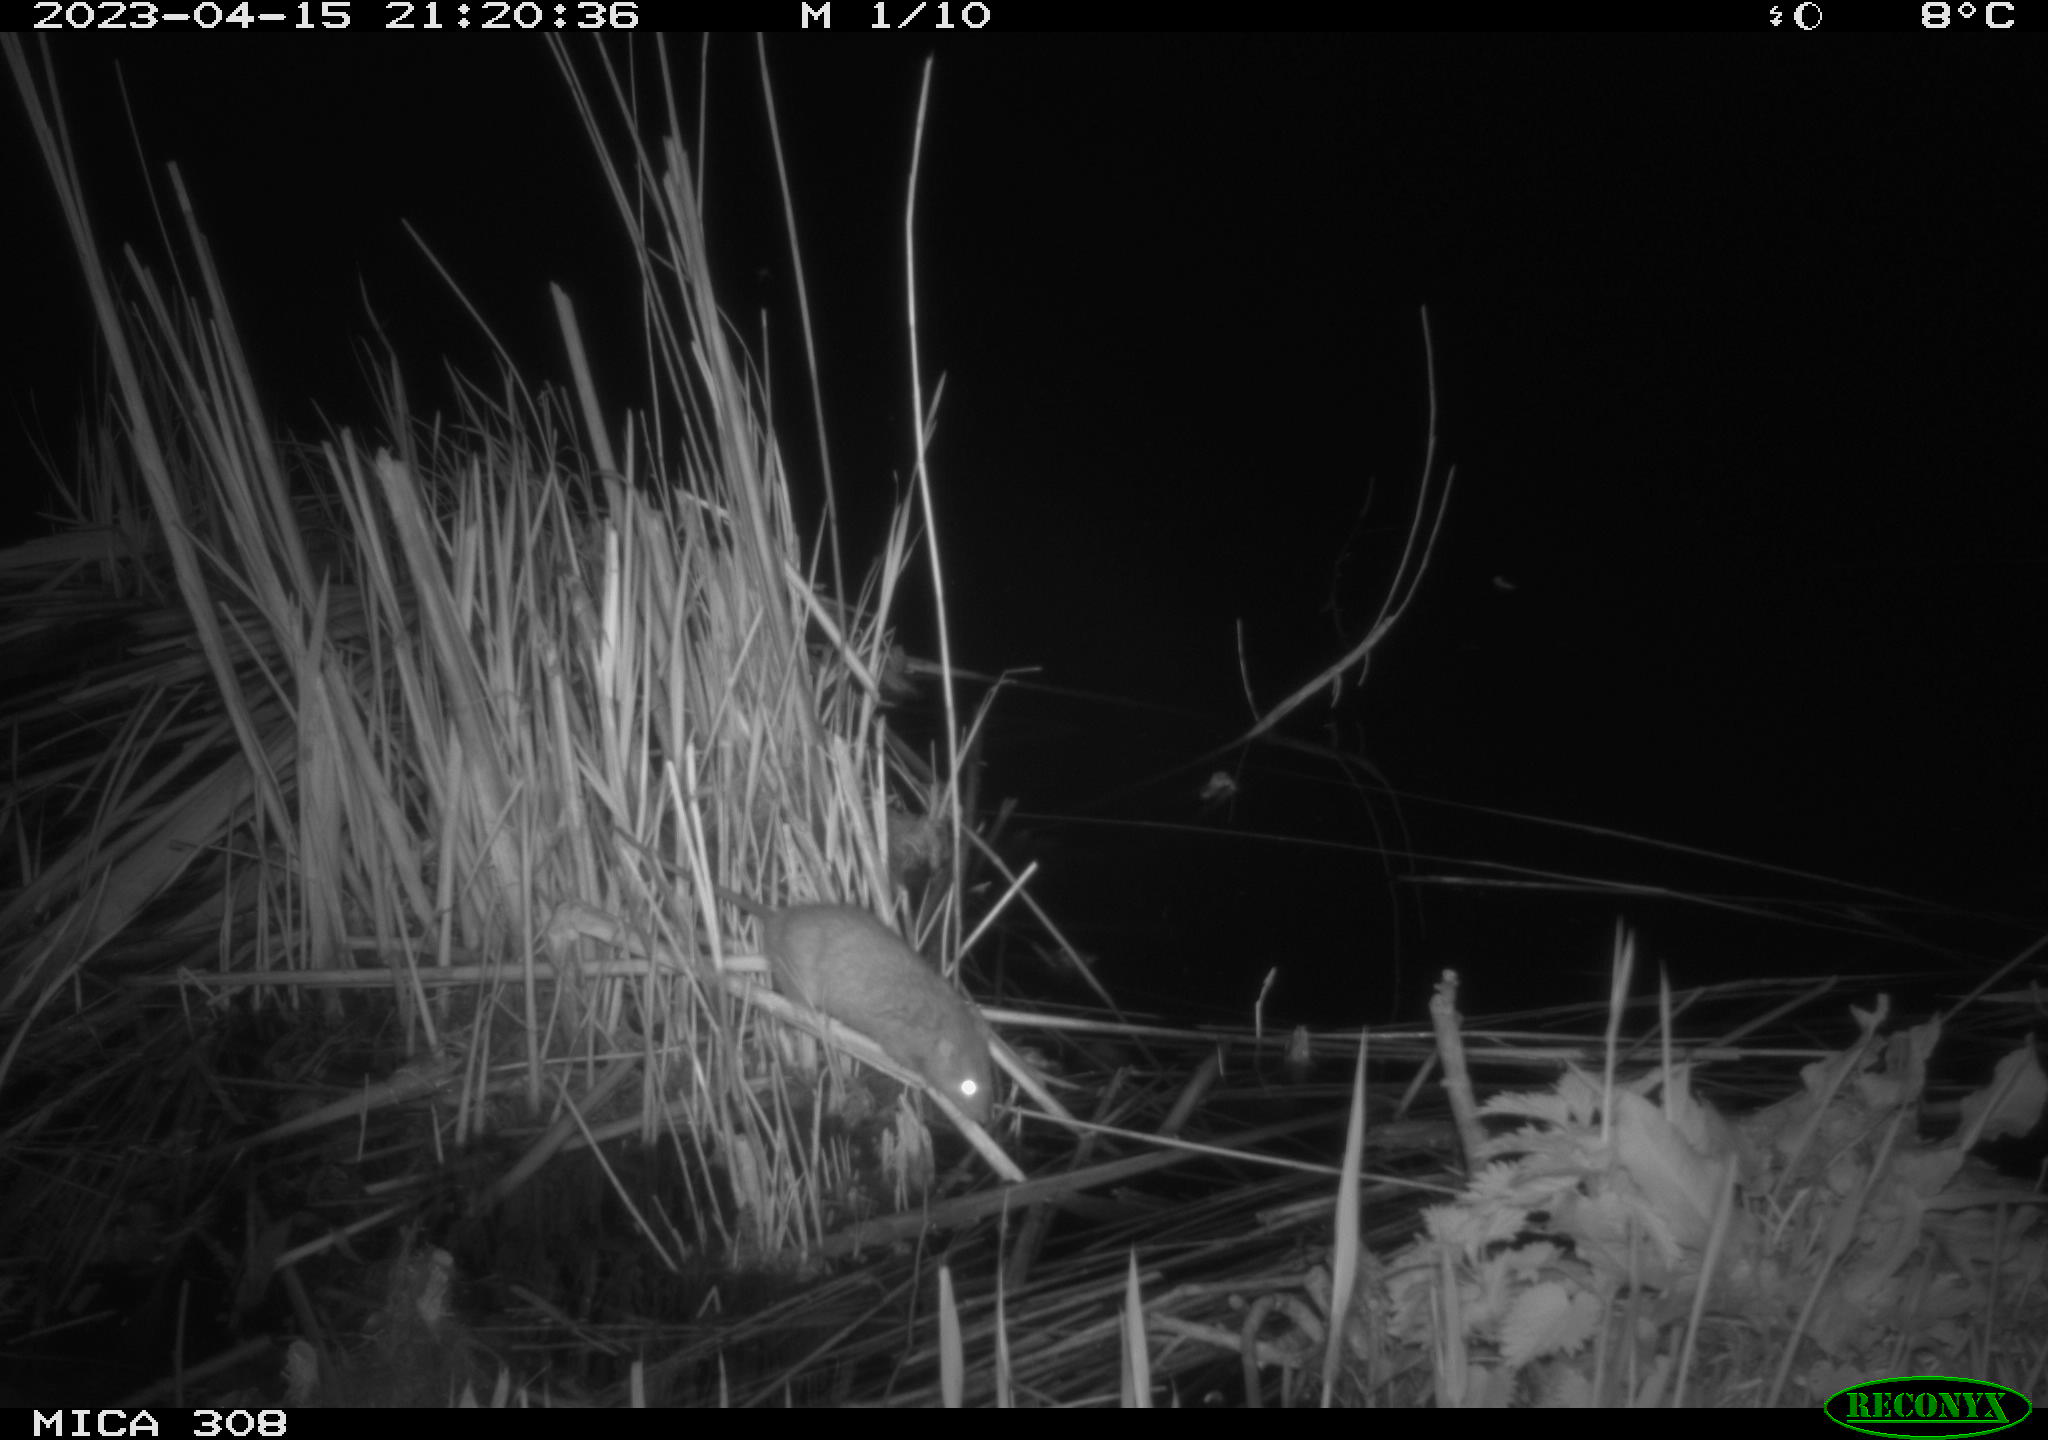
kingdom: Animalia
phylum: Chordata
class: Mammalia
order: Rodentia
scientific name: Rodentia
